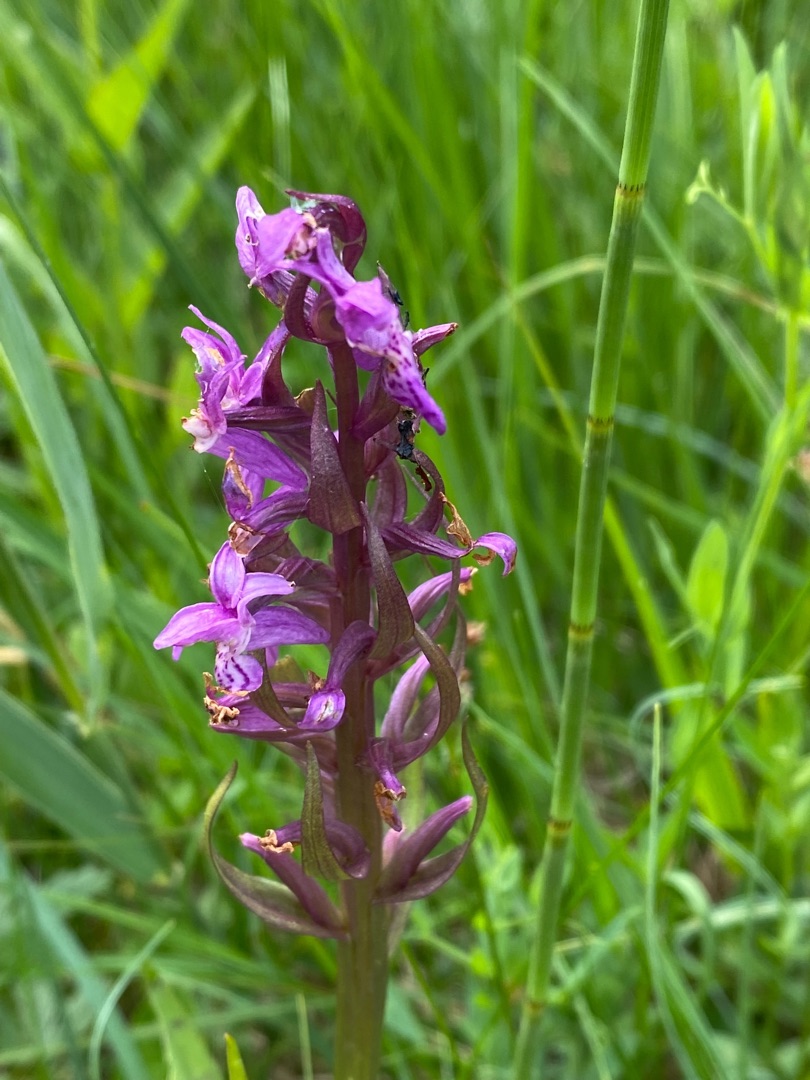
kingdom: Plantae
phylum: Tracheophyta
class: Liliopsida
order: Asparagales
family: Orchidaceae
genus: Dactylorhiza
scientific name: Dactylorhiza majalis
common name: Maj-gøgeurt
